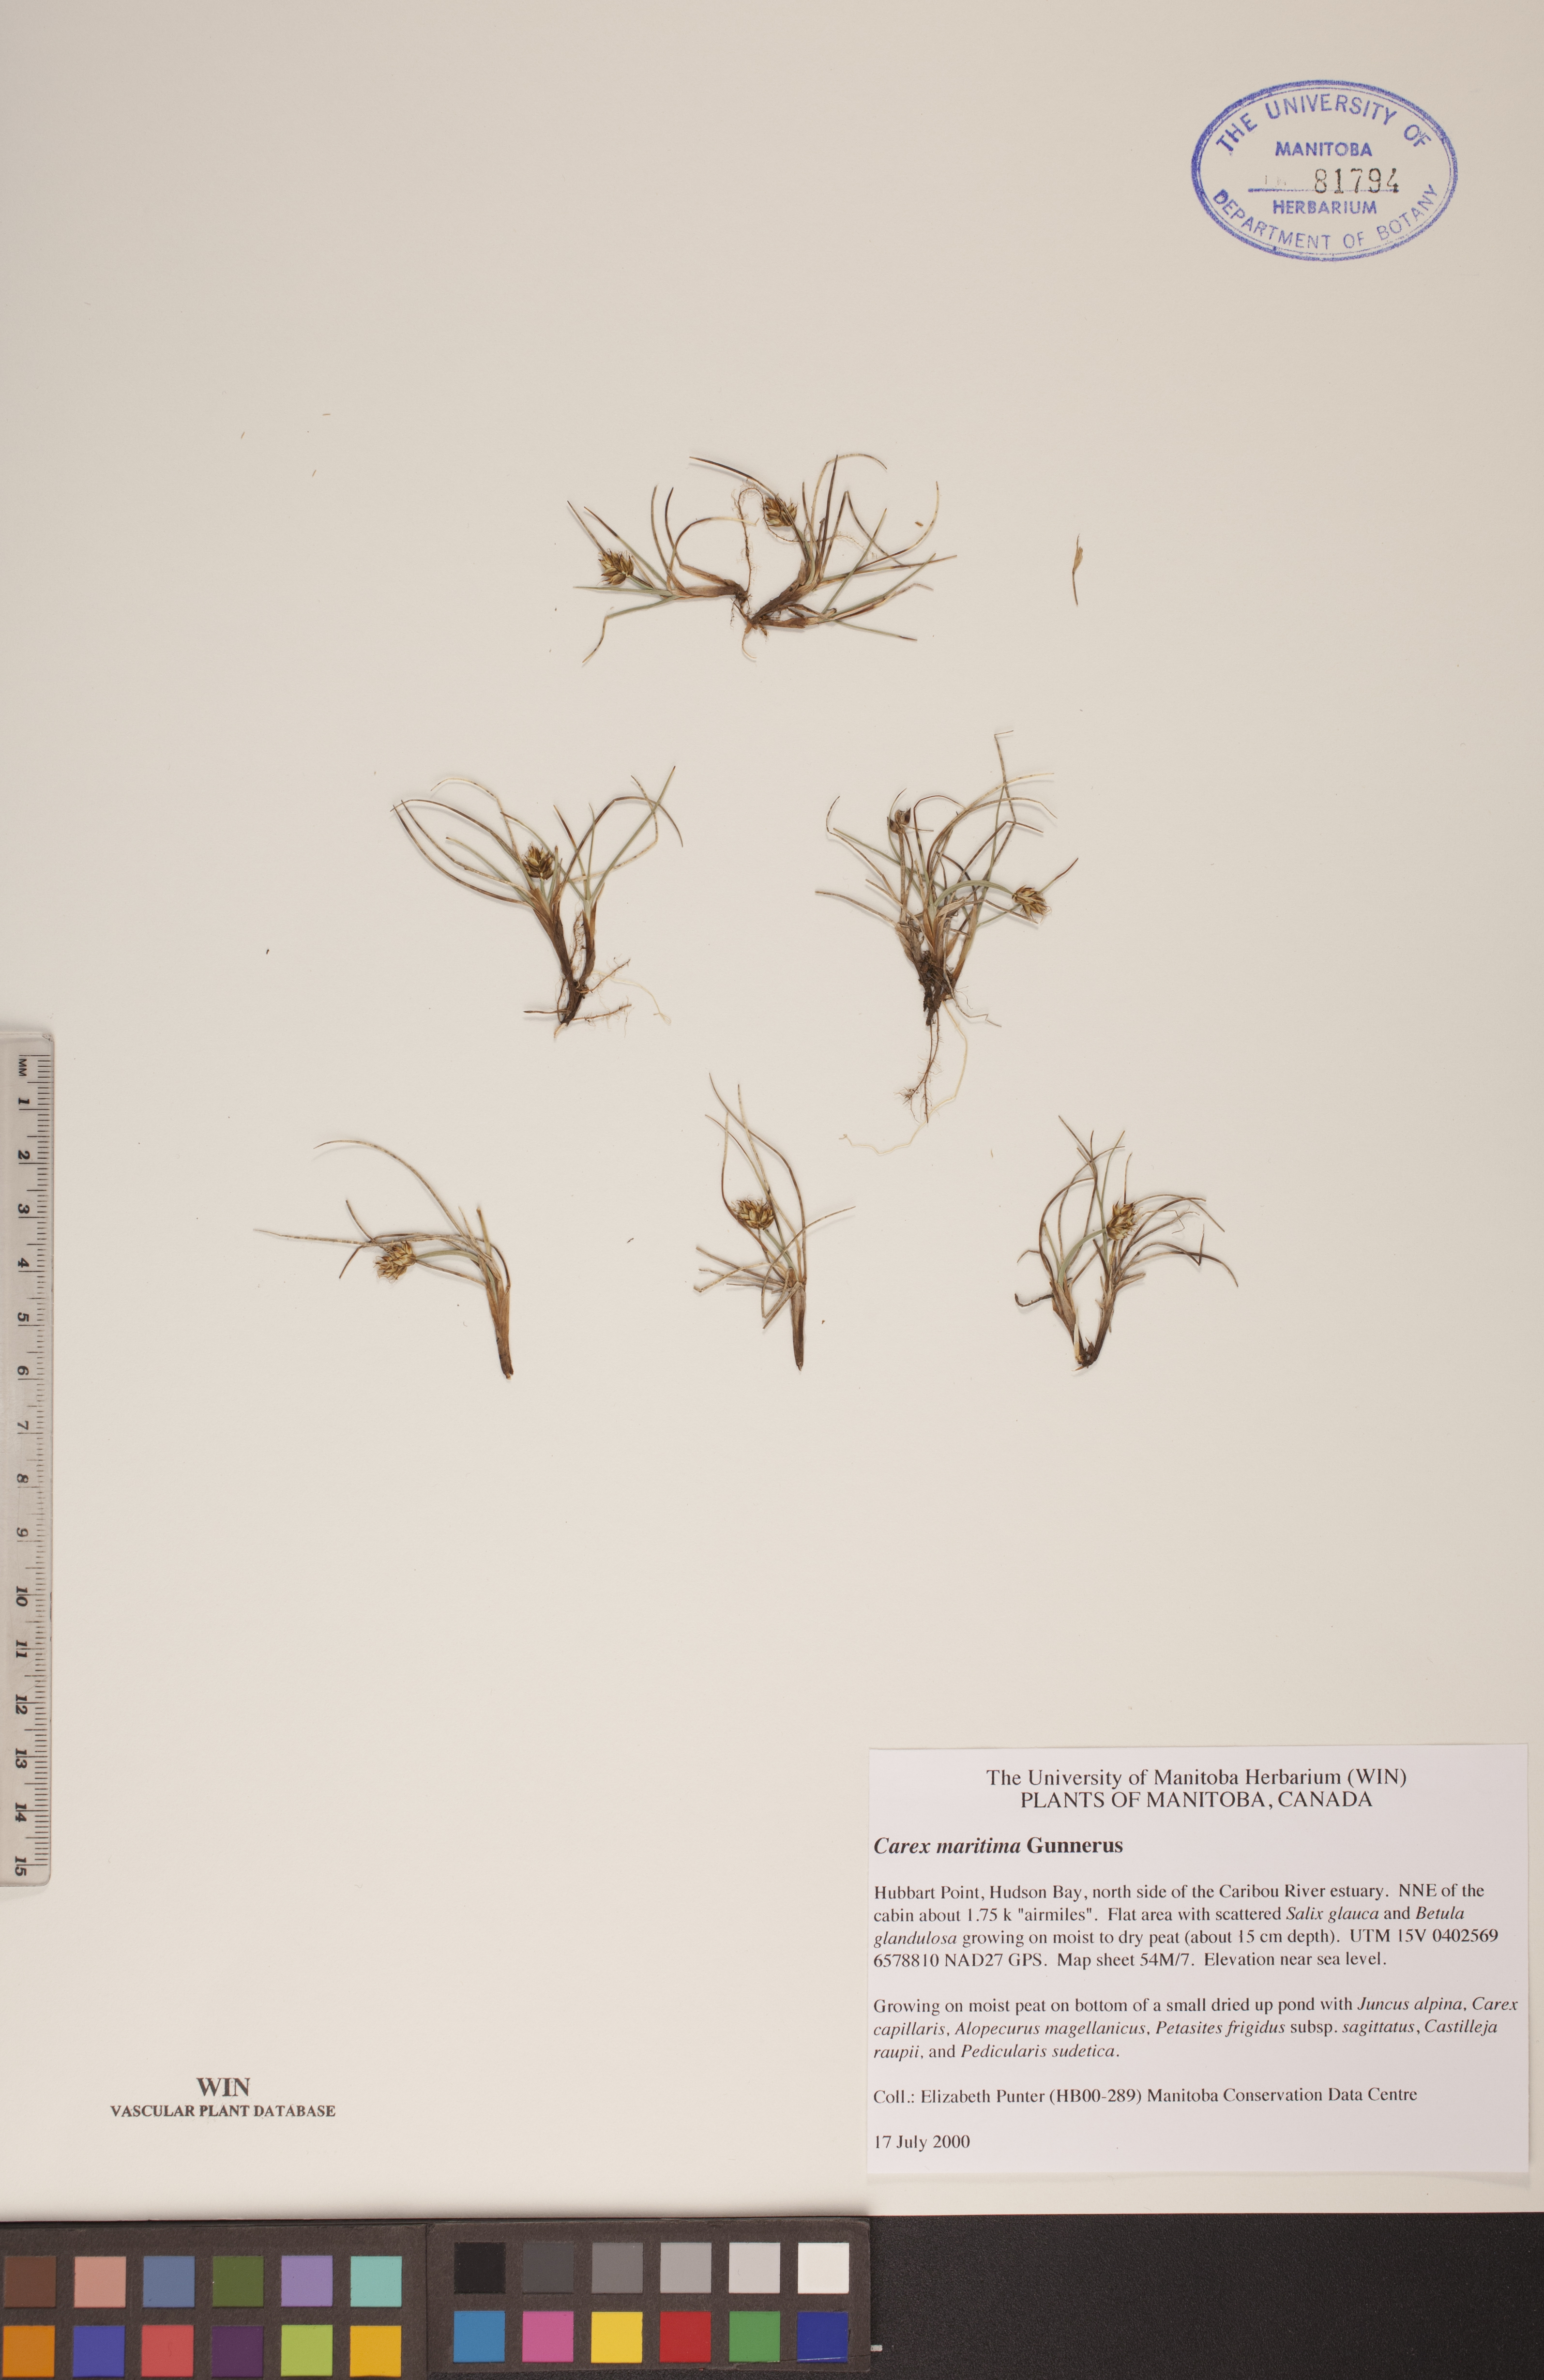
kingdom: Plantae
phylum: Tracheophyta
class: Liliopsida
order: Poales
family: Cyperaceae
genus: Carex
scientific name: Carex maritima
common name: Curved sedge
